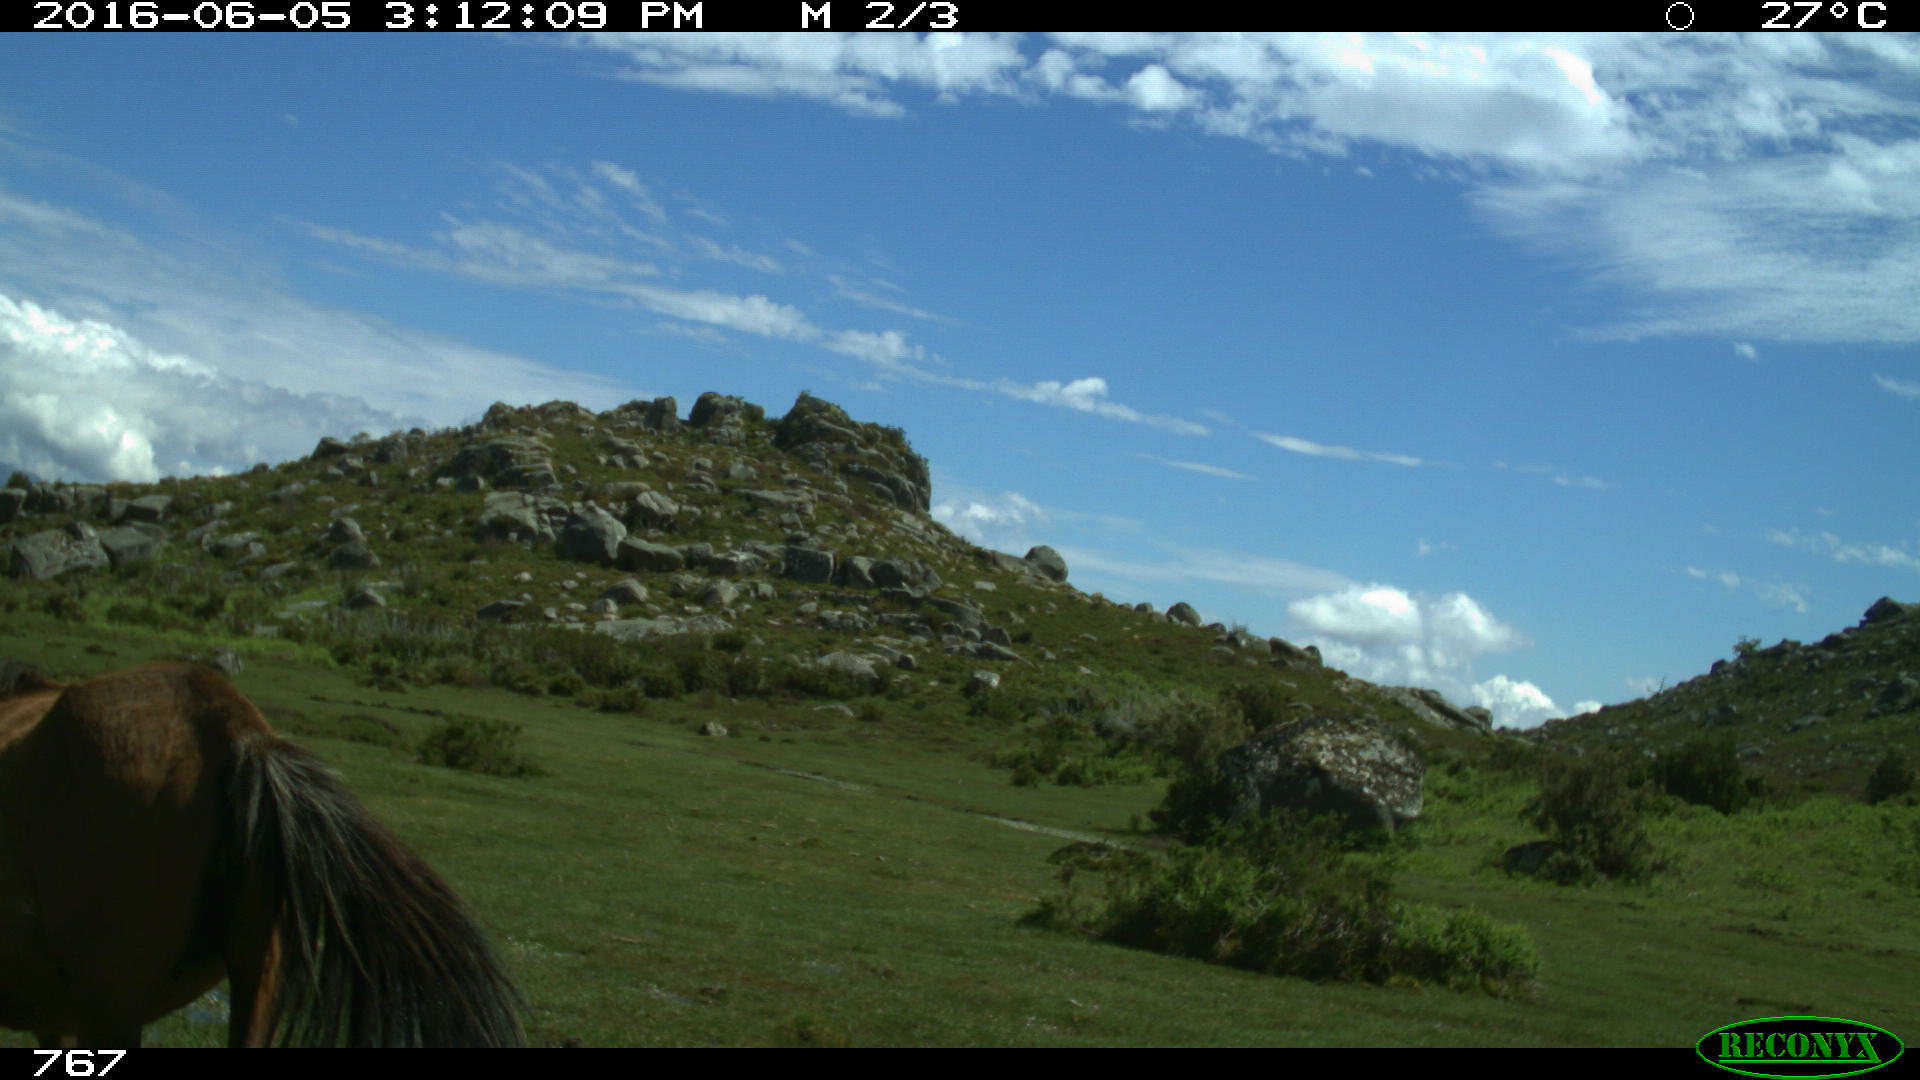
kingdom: Animalia
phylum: Chordata
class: Mammalia
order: Perissodactyla
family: Equidae
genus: Equus
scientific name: Equus caballus
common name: Horse
